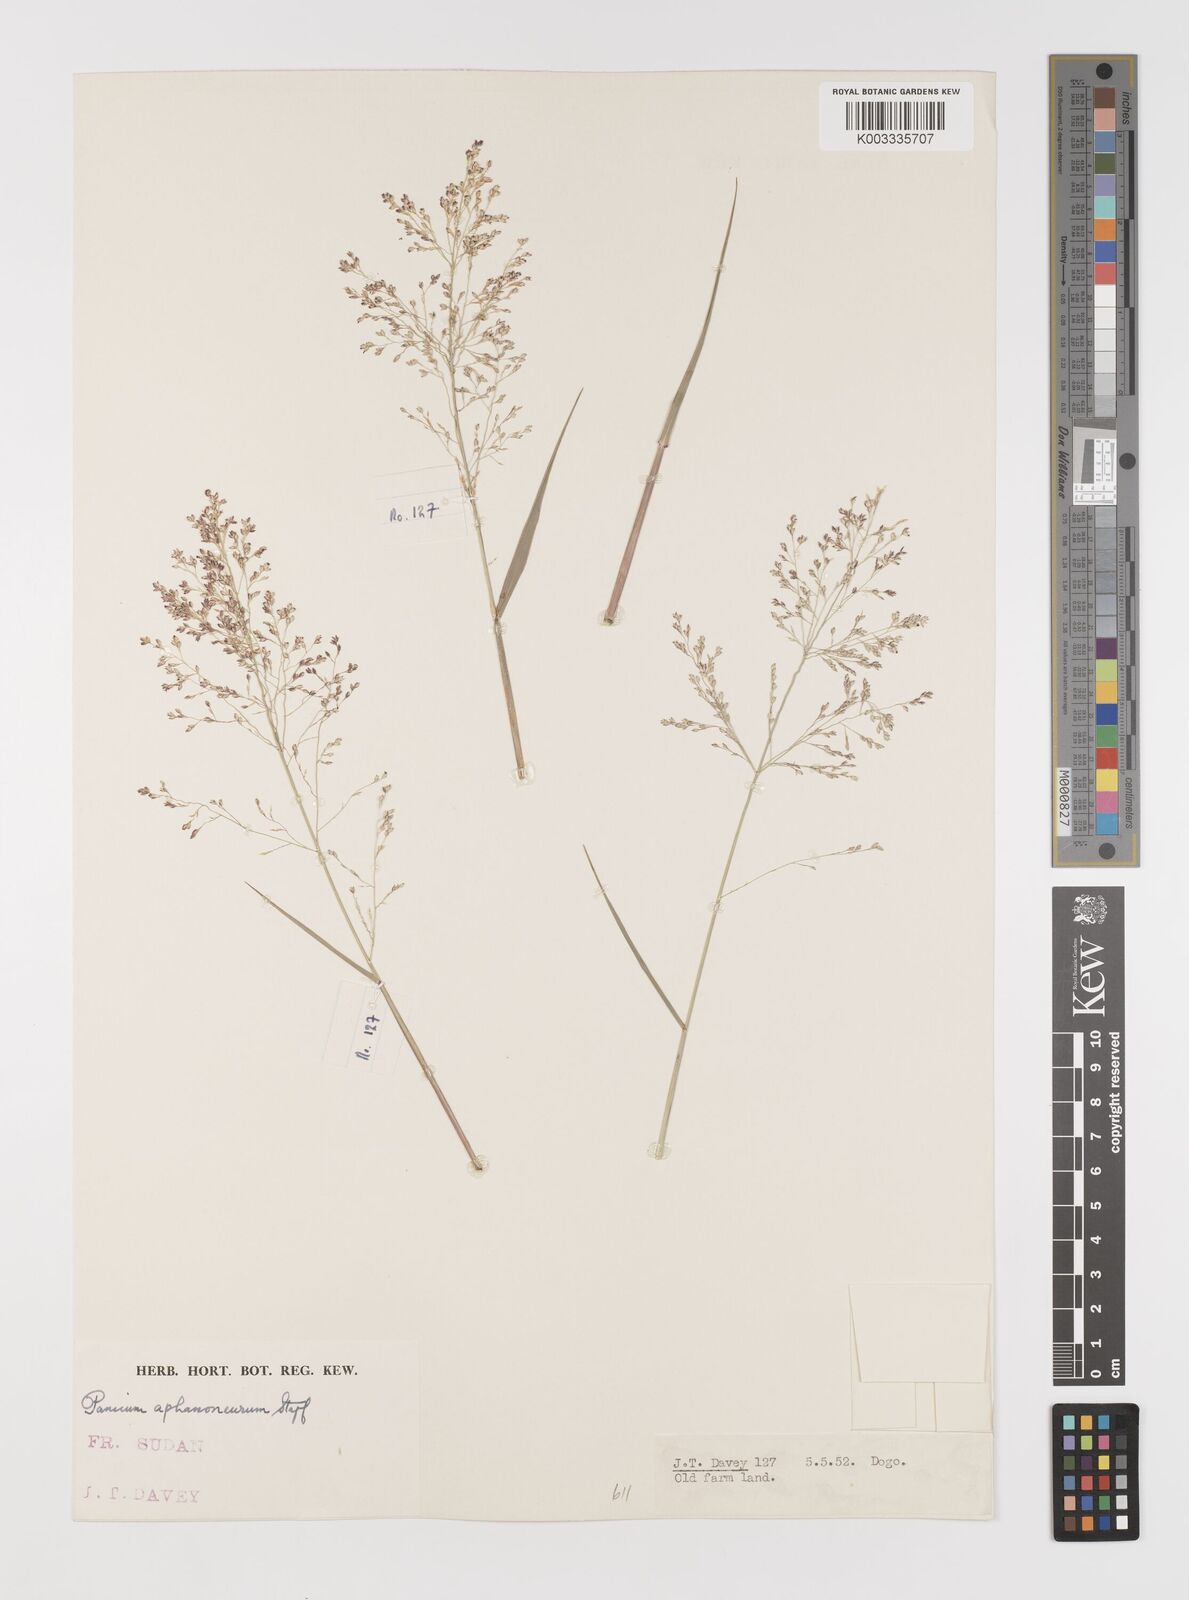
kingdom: Plantae
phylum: Tracheophyta
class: Liliopsida
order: Poales
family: Poaceae
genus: Panicum
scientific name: Panicum fluviicola
